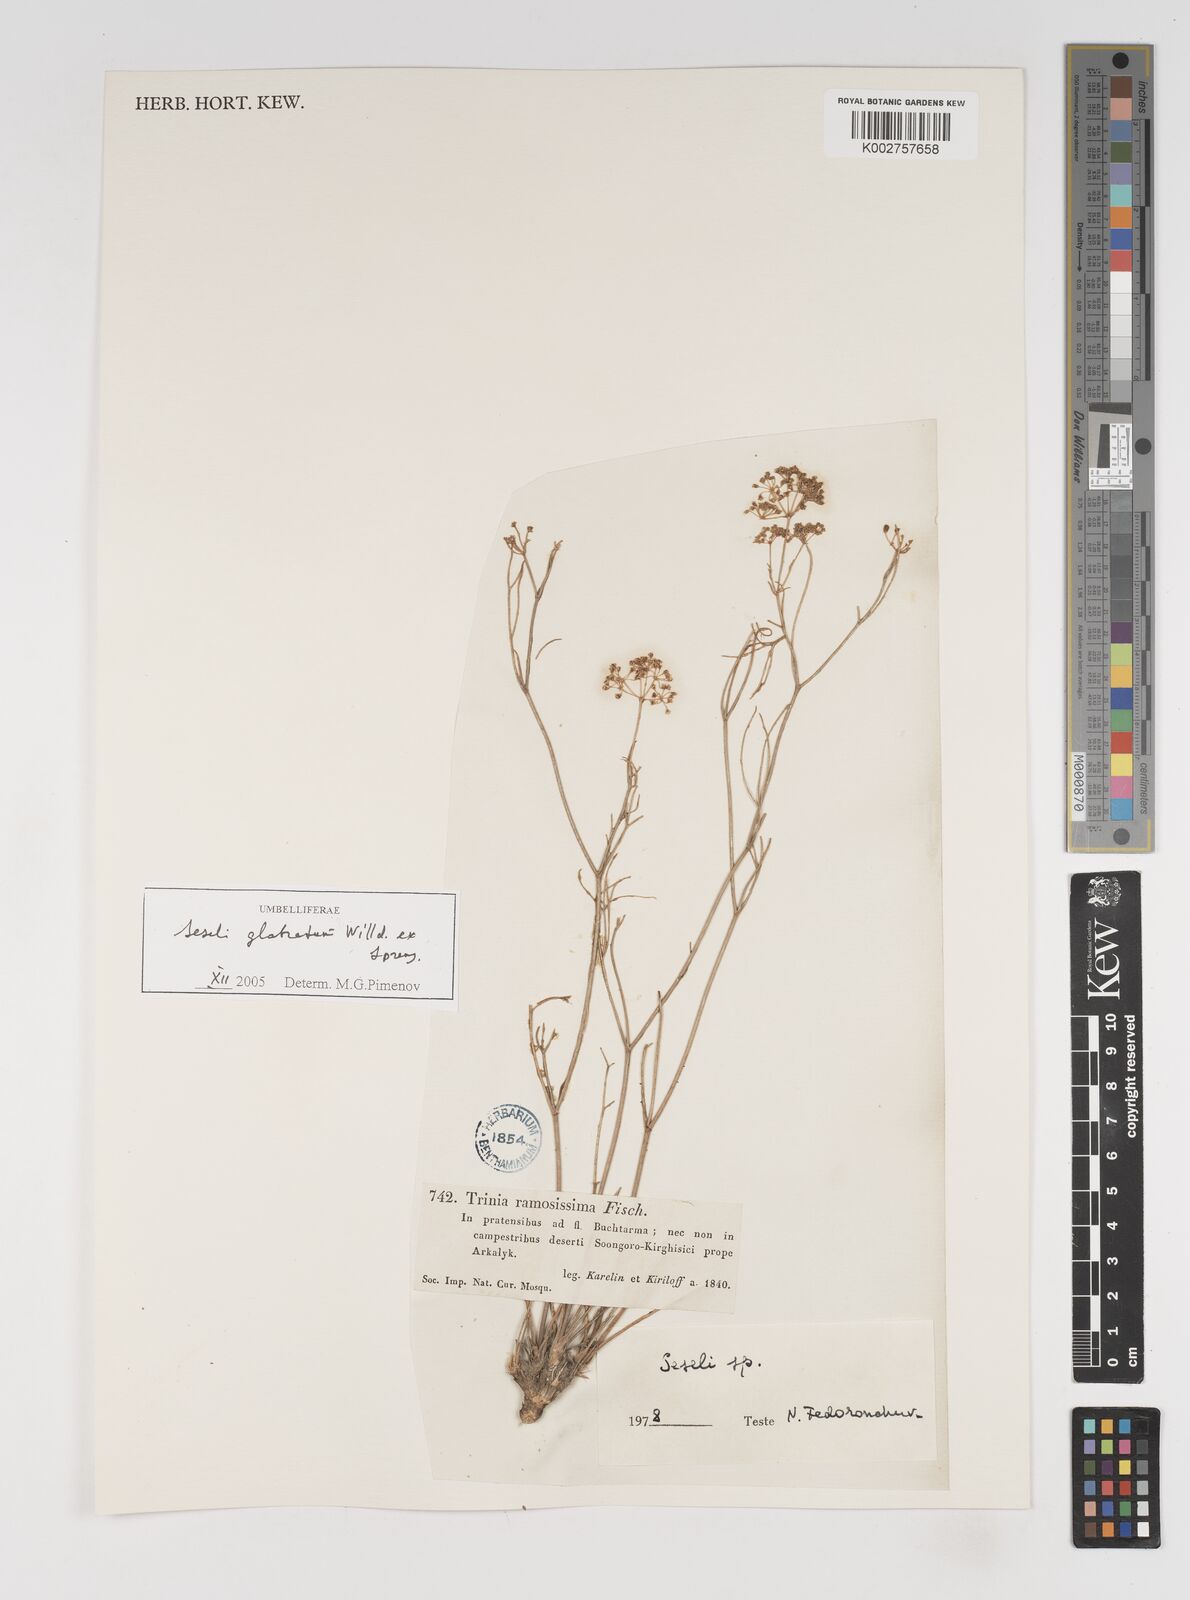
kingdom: Plantae
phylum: Tracheophyta
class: Magnoliopsida
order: Apiales
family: Apiaceae
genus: Seseli
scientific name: Seseli glabratum
